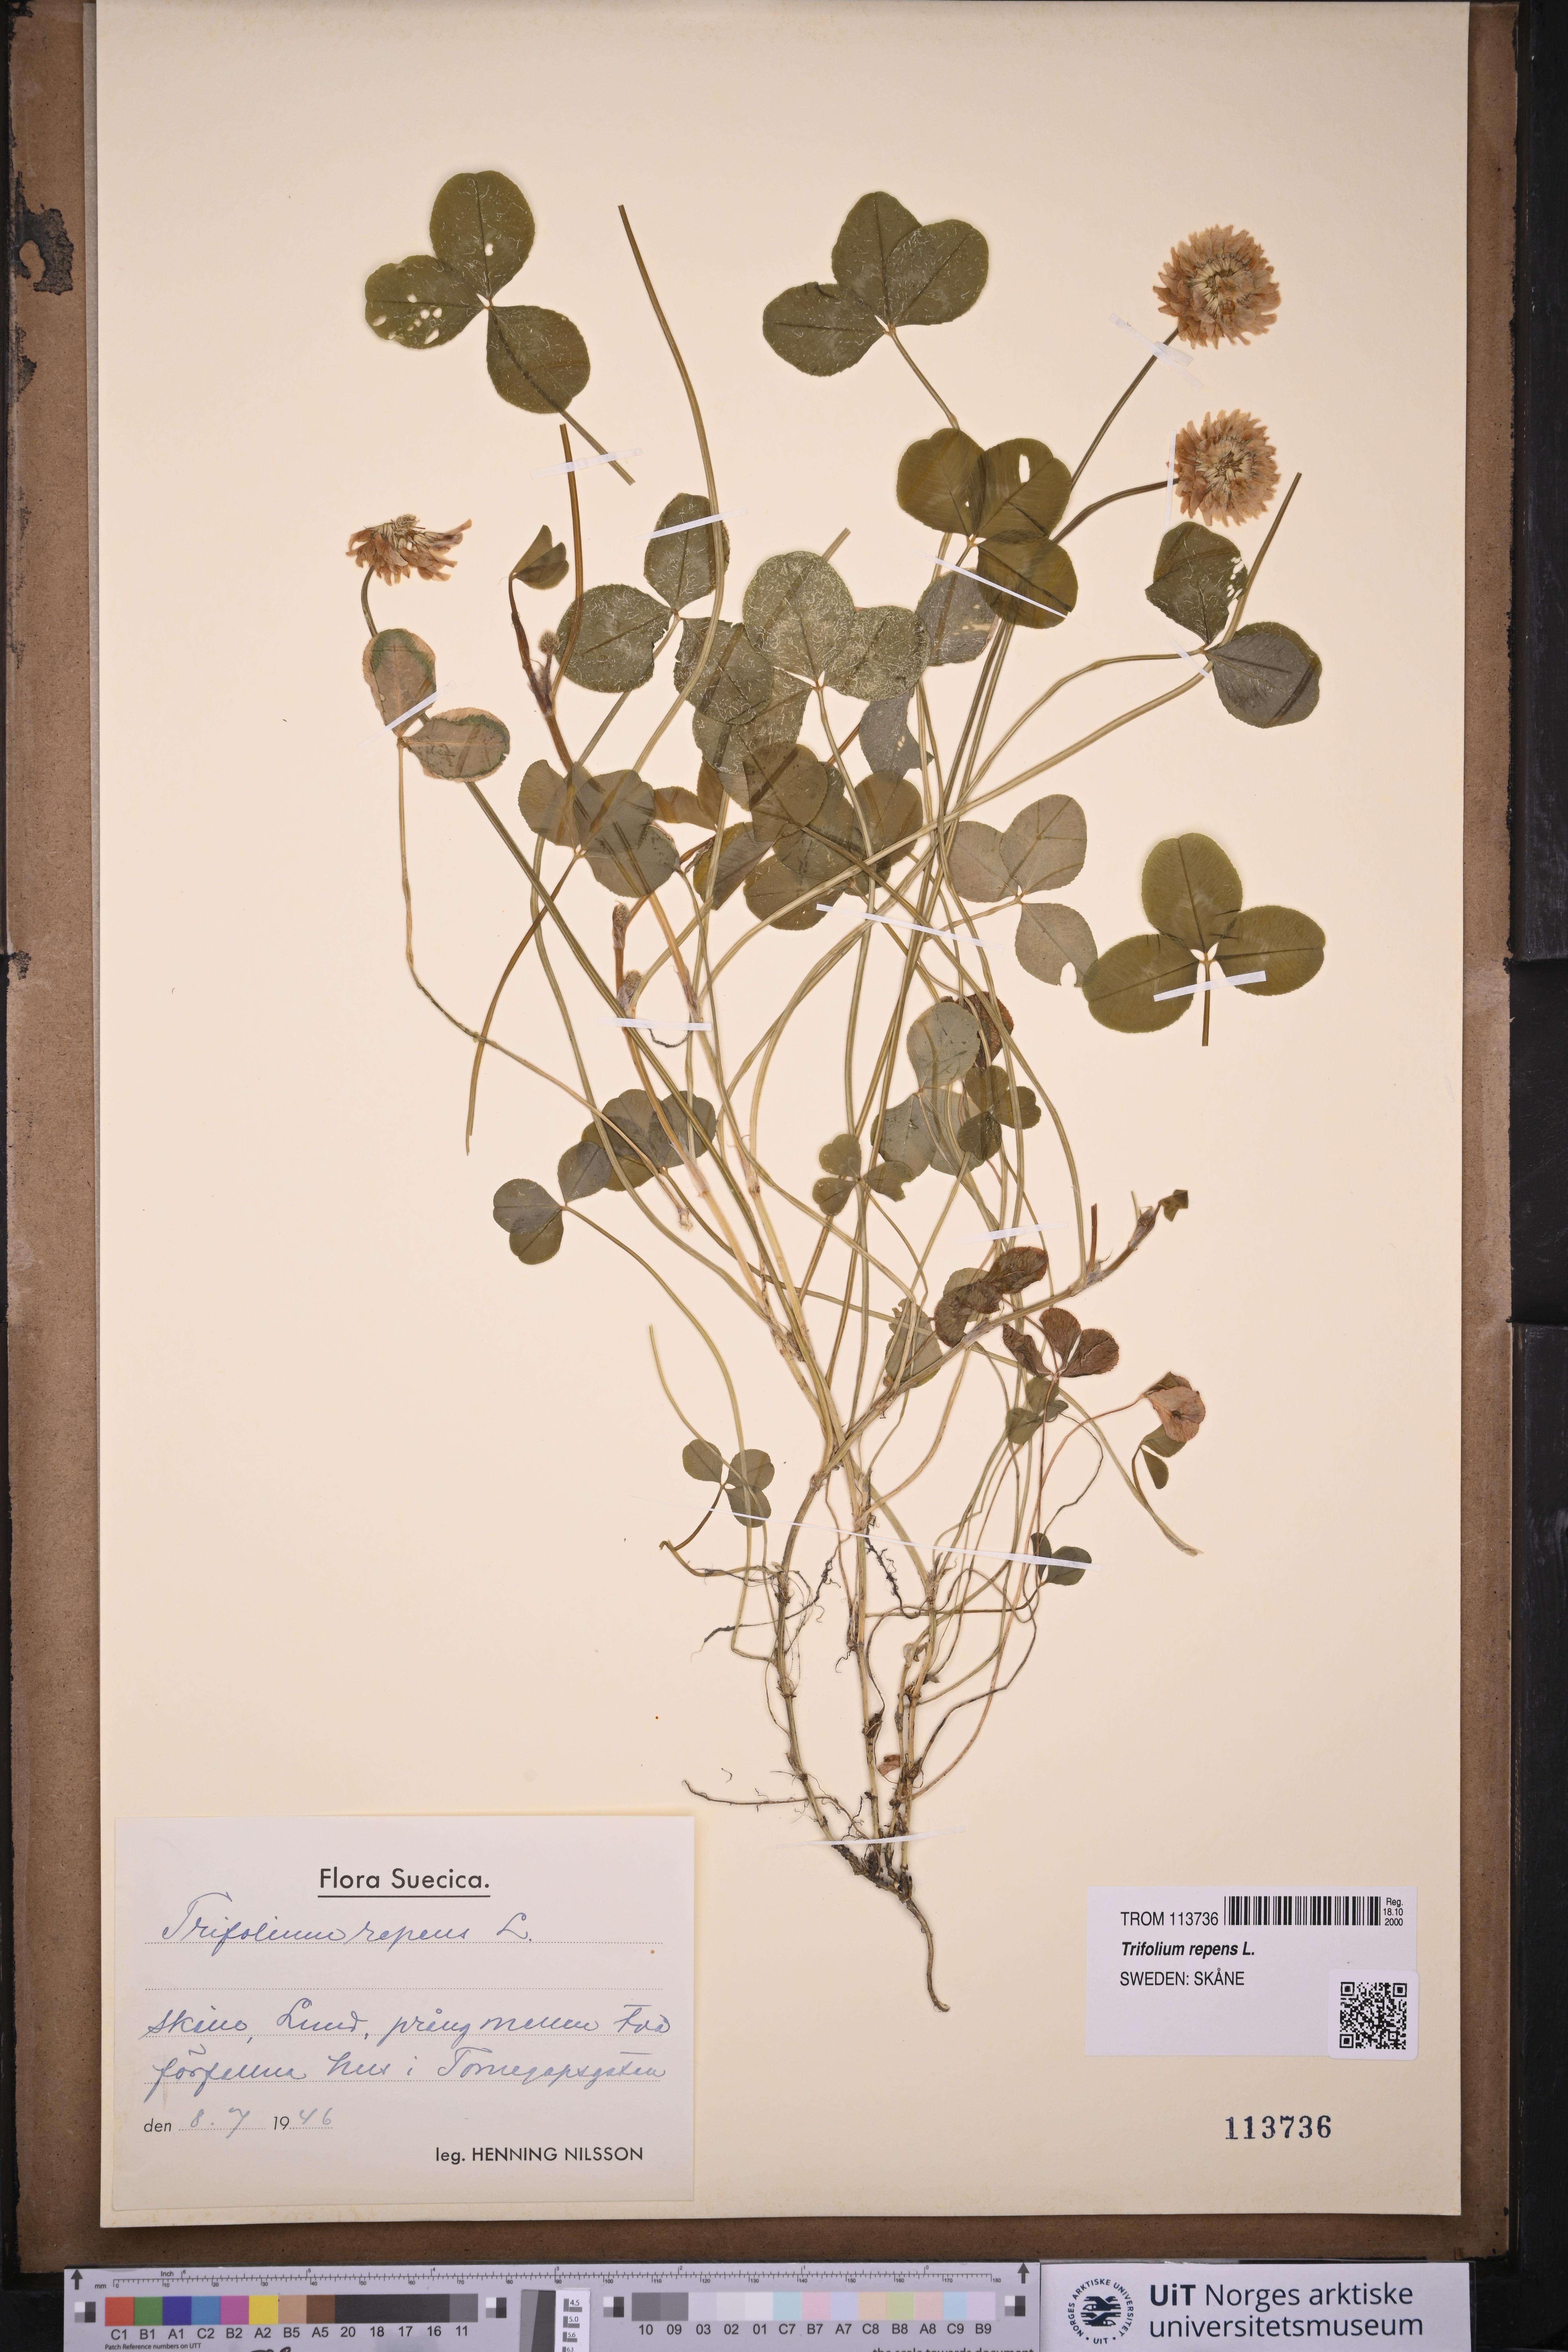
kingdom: Plantae
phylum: Tracheophyta
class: Magnoliopsida
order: Fabales
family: Fabaceae
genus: Trifolium
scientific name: Trifolium repens
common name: White clover
